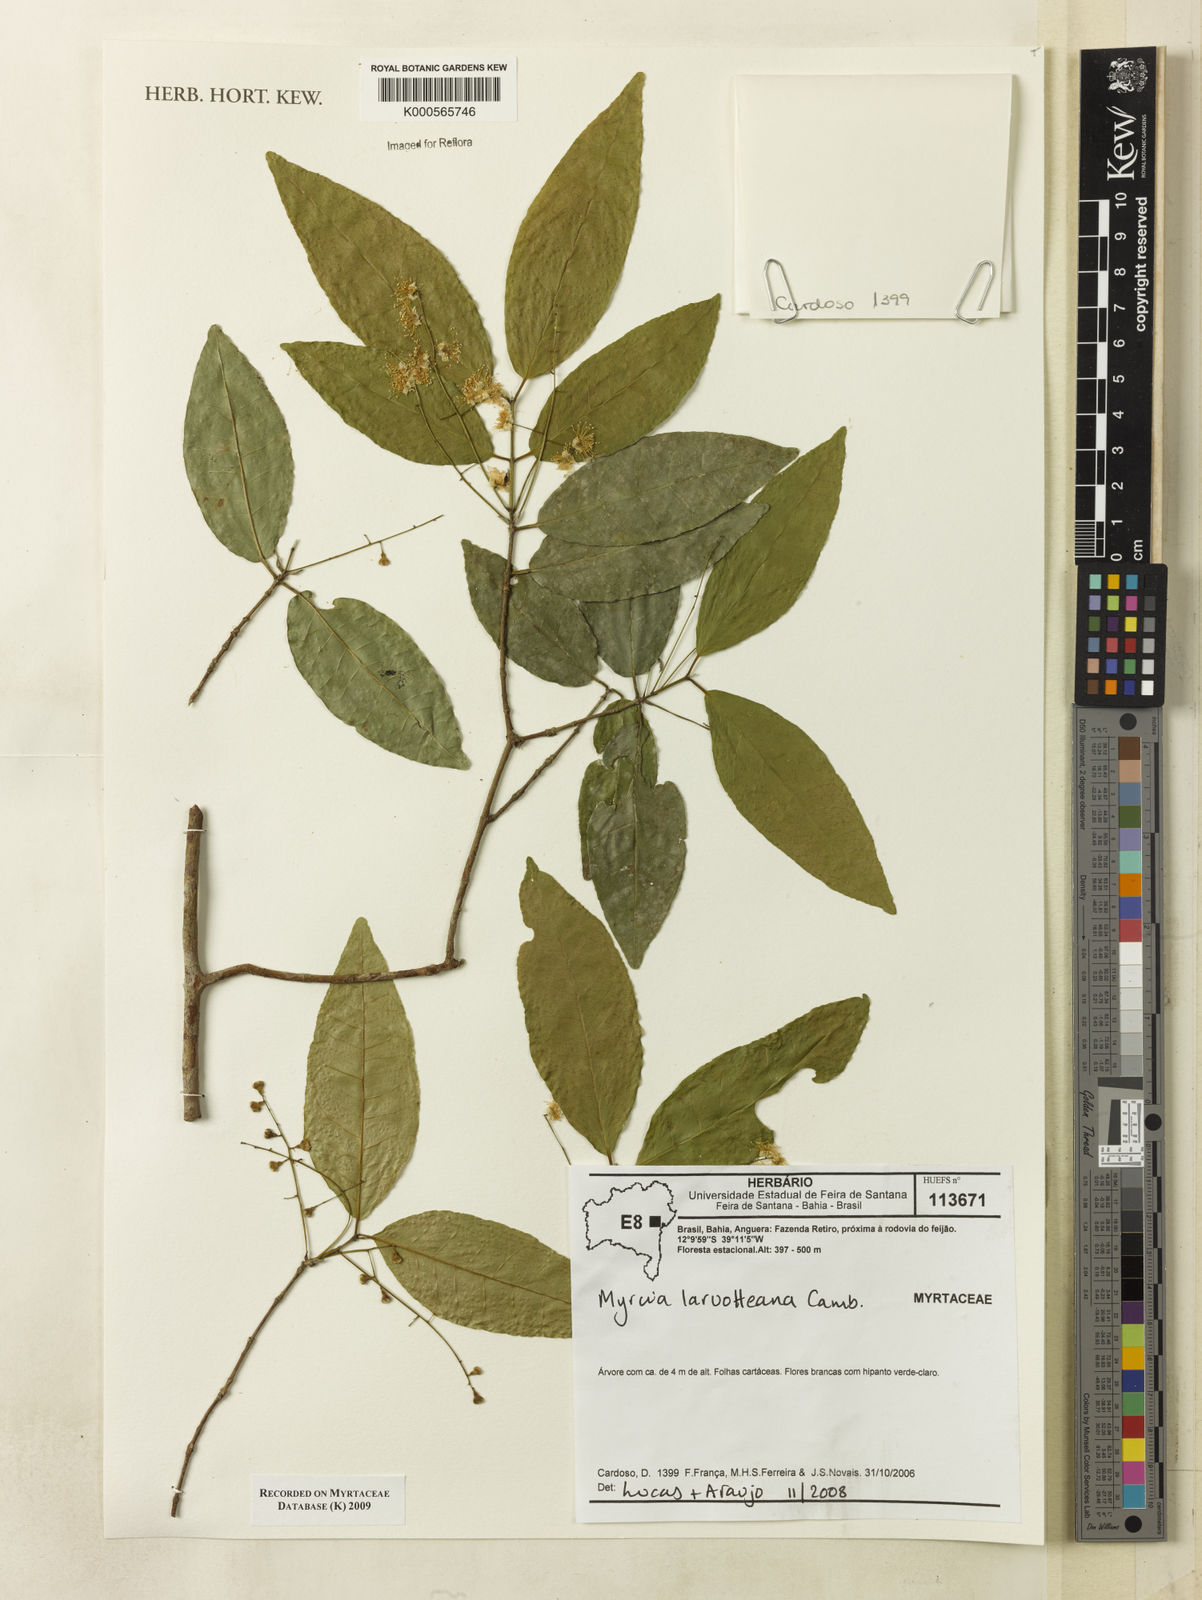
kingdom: Plantae
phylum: Tracheophyta
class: Magnoliopsida
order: Myrtales
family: Myrtaceae
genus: Myrcia
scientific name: Myrcia laruotteana
